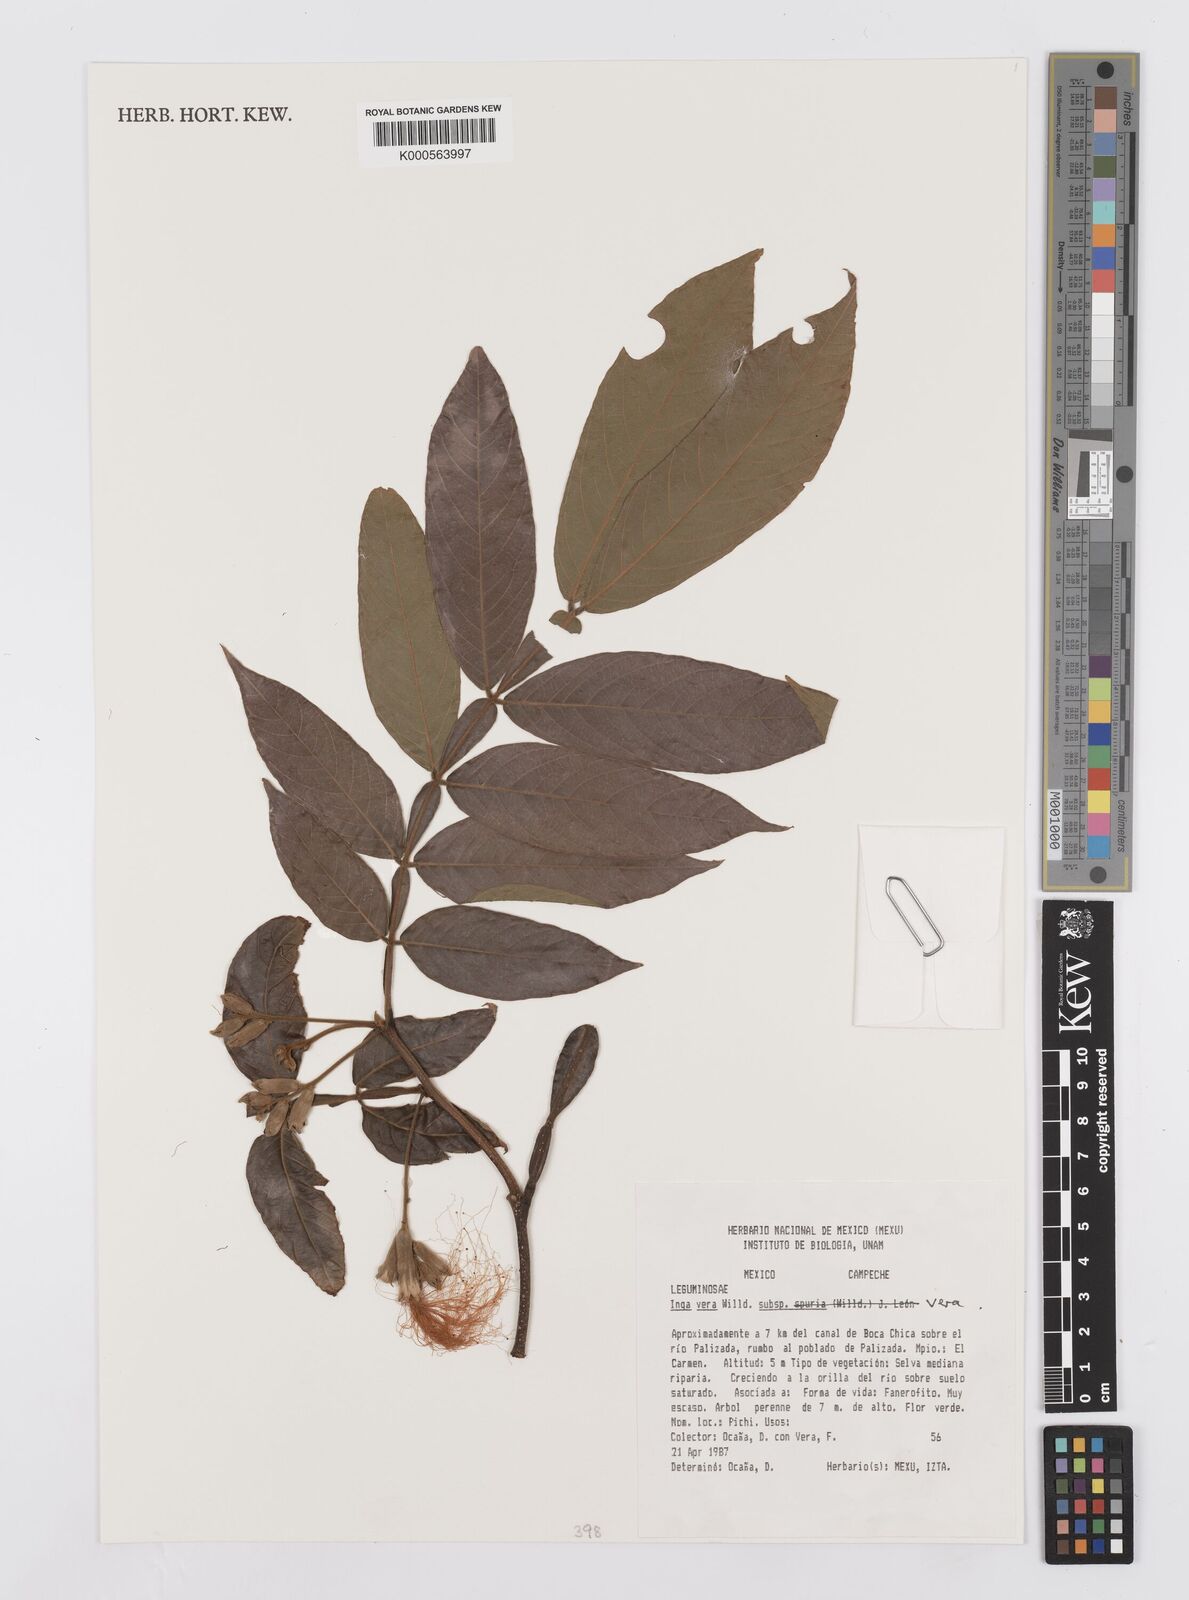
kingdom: Plantae
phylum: Tracheophyta
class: Magnoliopsida
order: Fabales
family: Fabaceae
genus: Inga
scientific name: Inga vera
